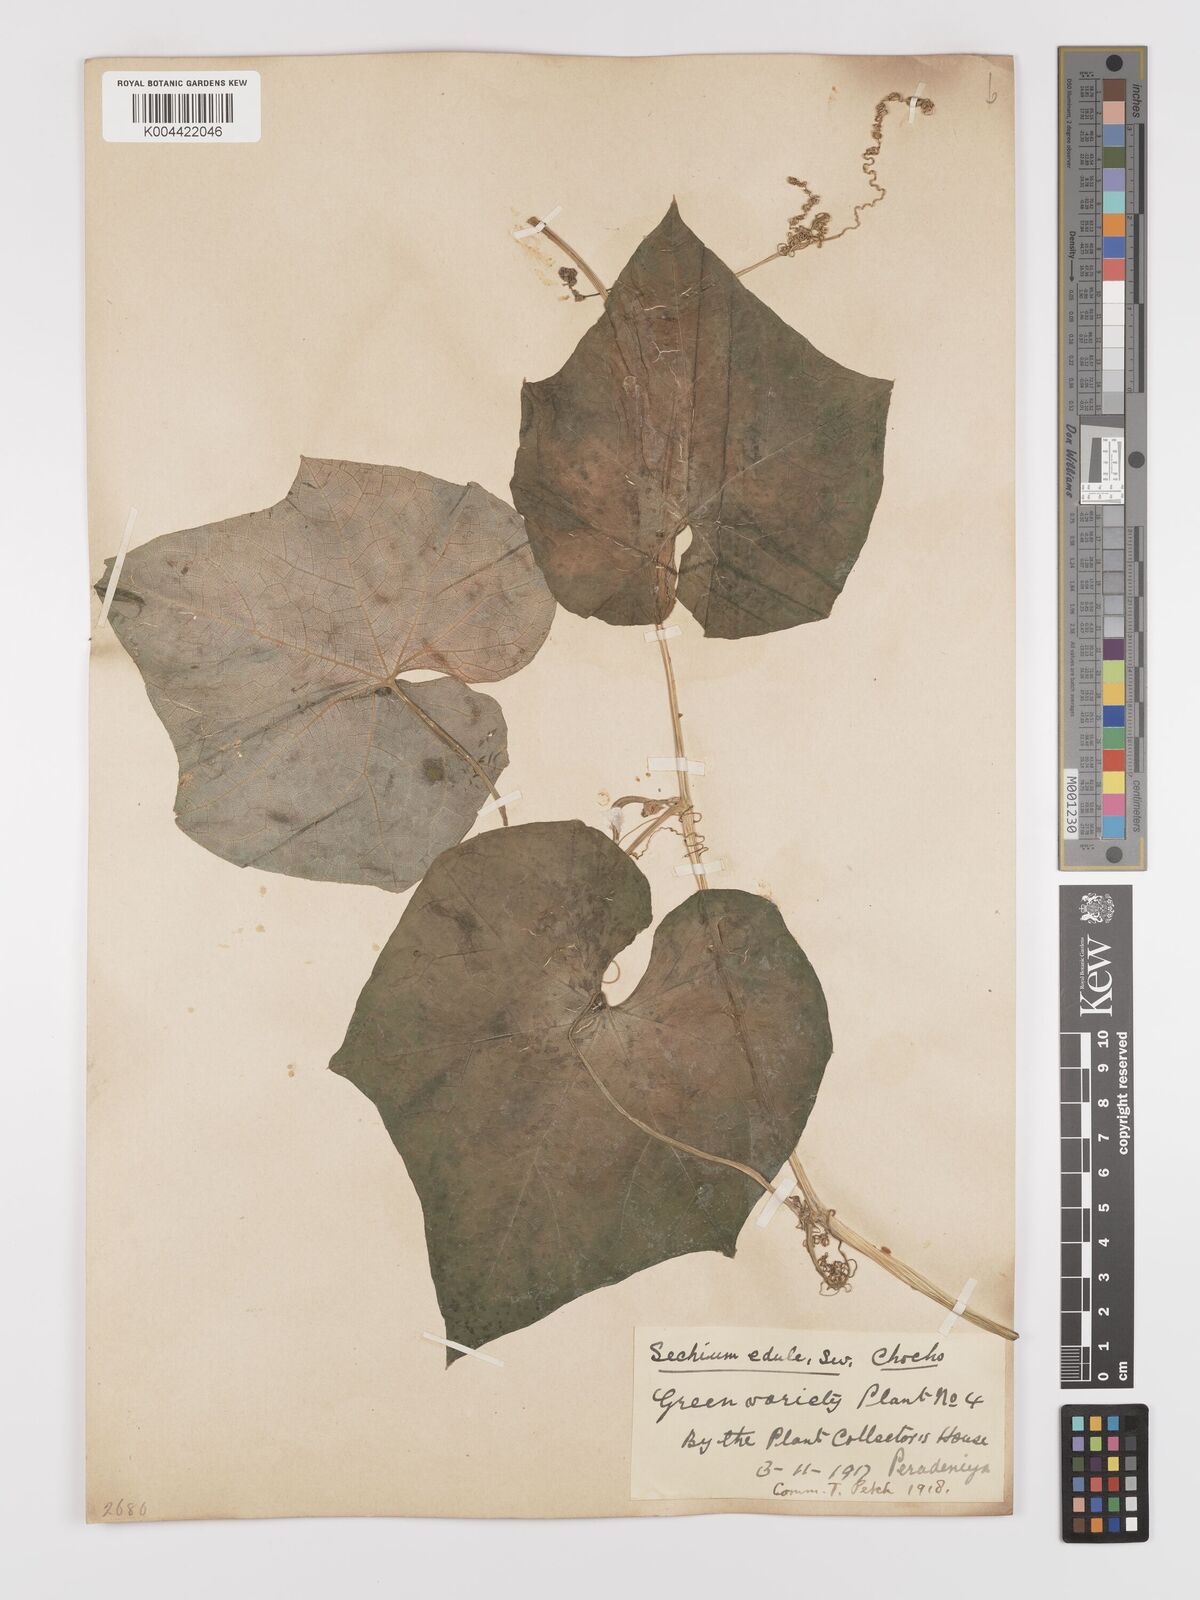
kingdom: Plantae
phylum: Tracheophyta
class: Magnoliopsida
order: Cucurbitales
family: Cucurbitaceae
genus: Sechium
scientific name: Sechium edule
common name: Chayote
